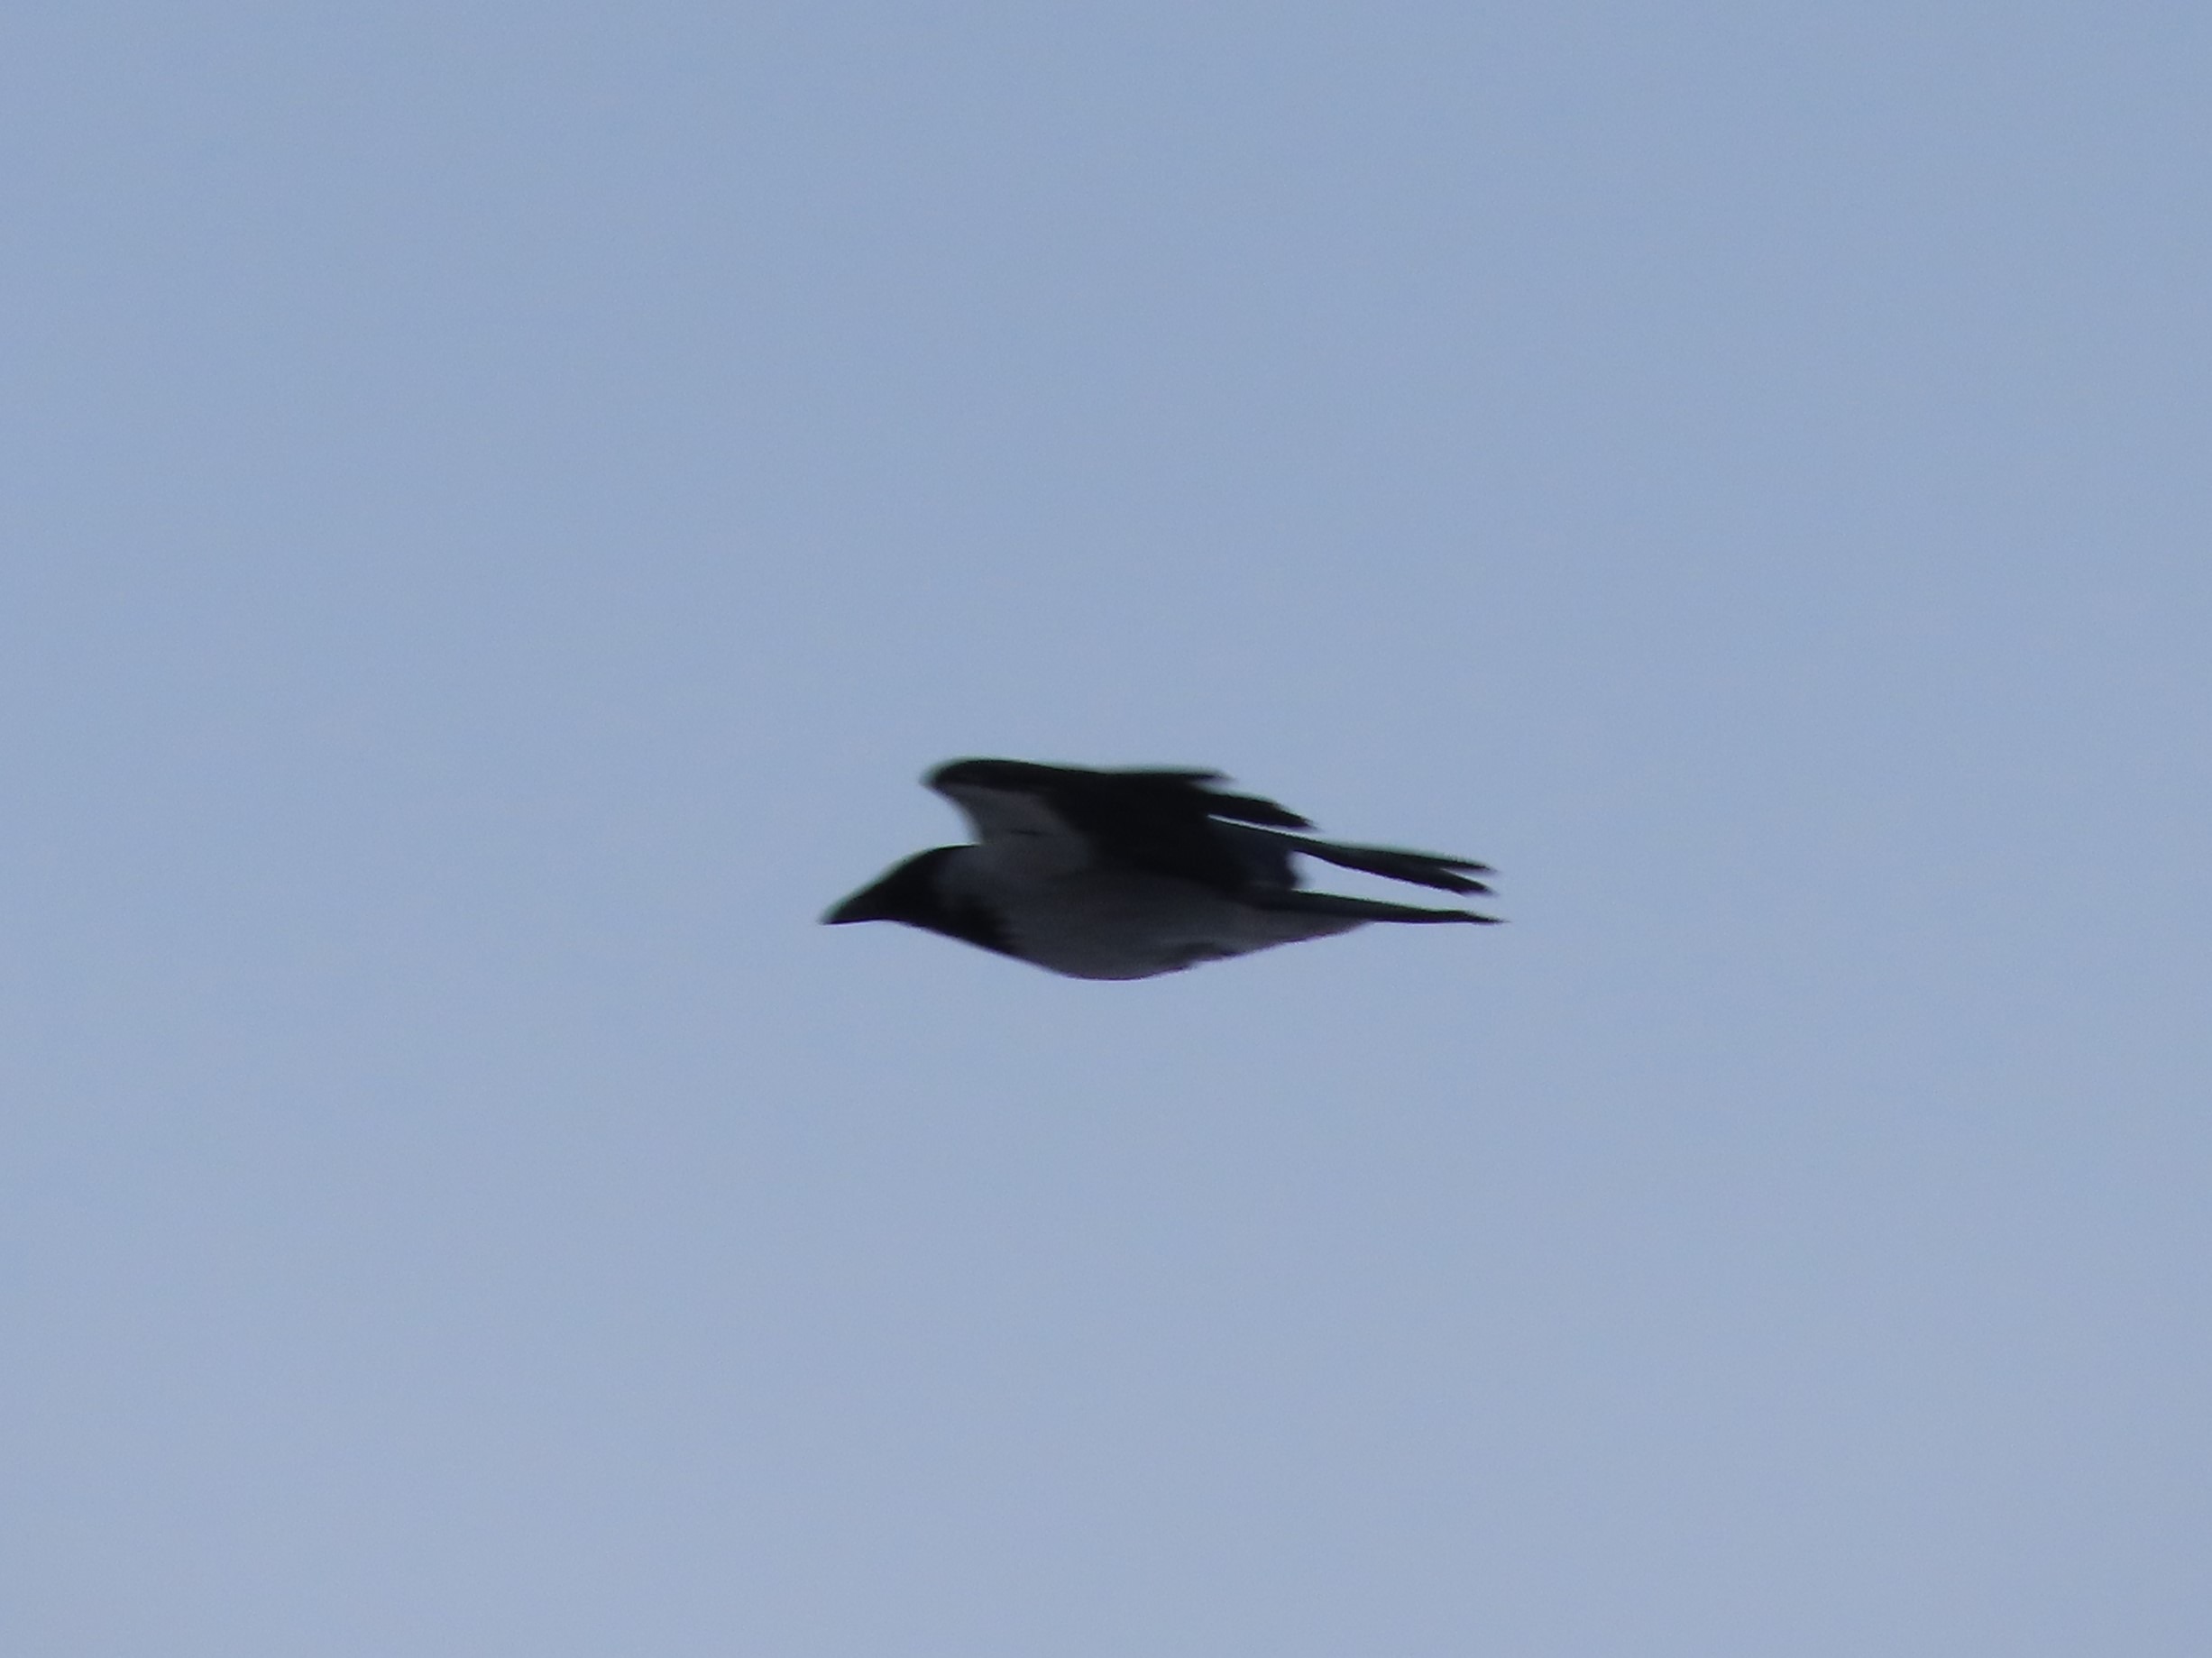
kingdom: Animalia
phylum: Chordata
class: Aves
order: Passeriformes
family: Corvidae
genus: Corvus
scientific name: Corvus cornix
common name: Gråkrage
